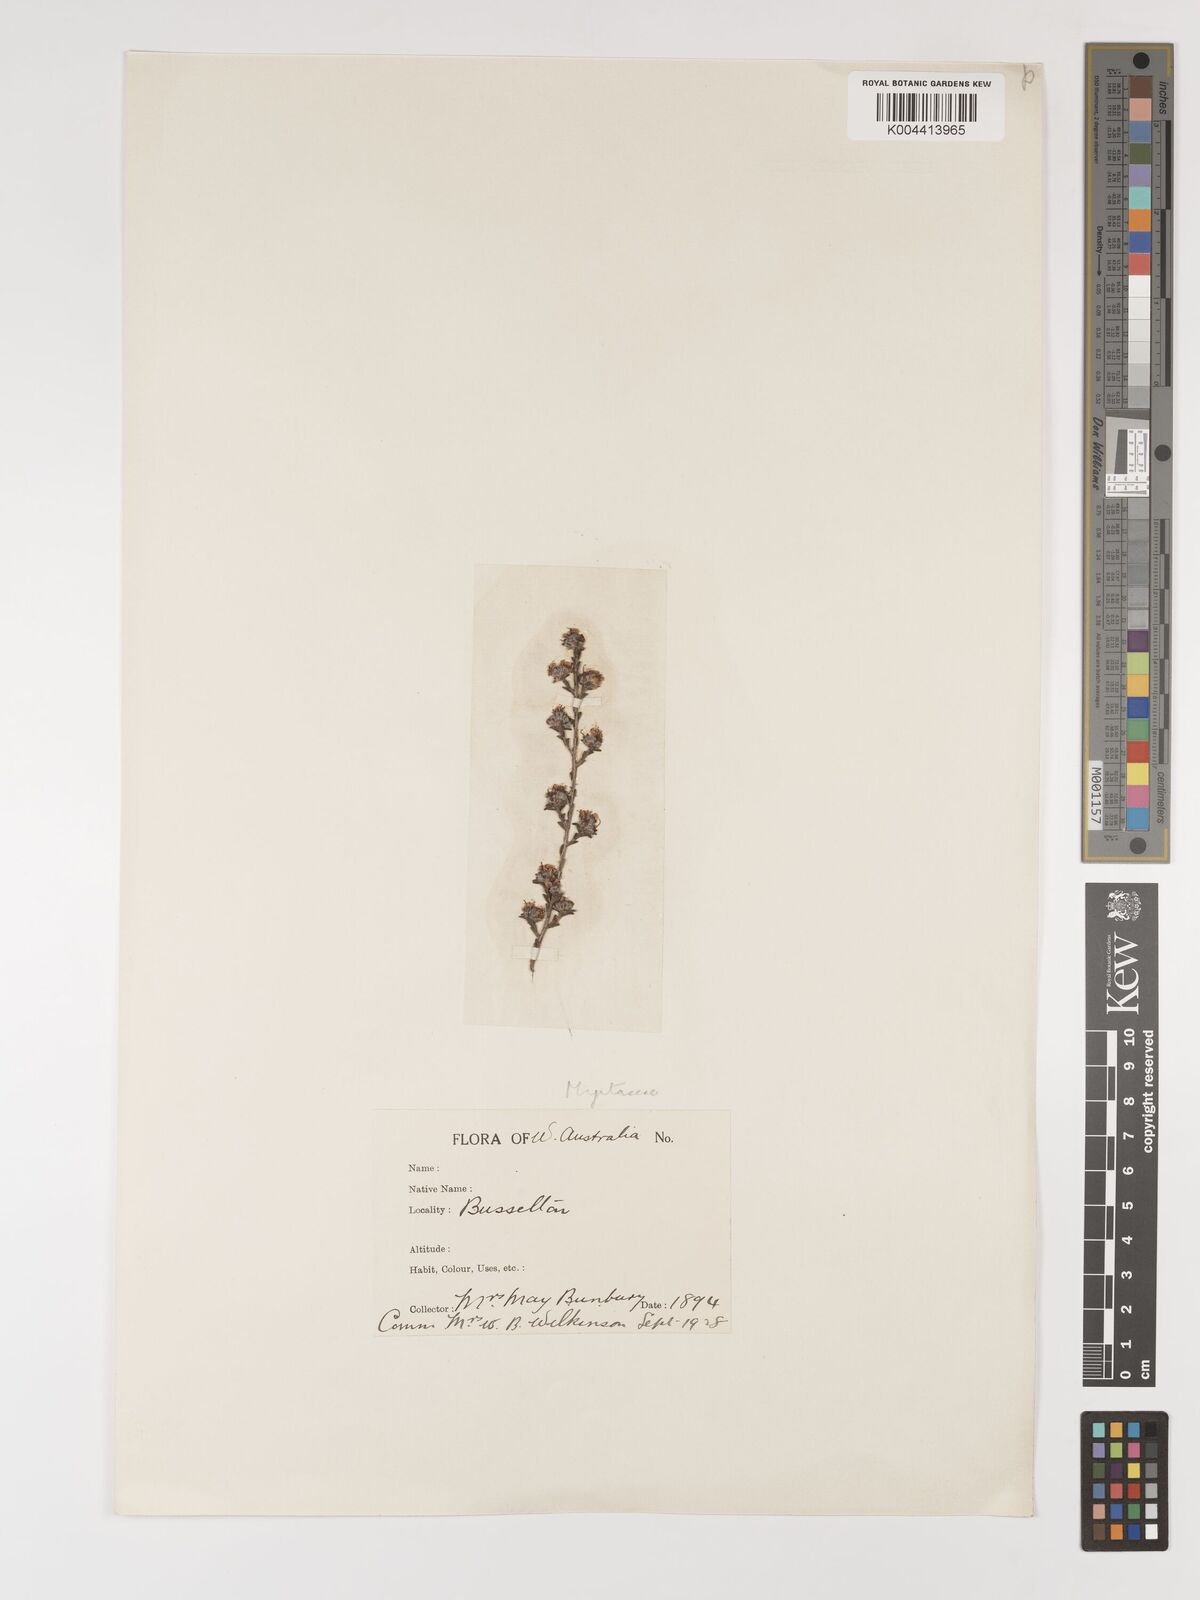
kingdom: Plantae
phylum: Tracheophyta
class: Magnoliopsida
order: Myrtales
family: Myrtaceae
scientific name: Myrtaceae
